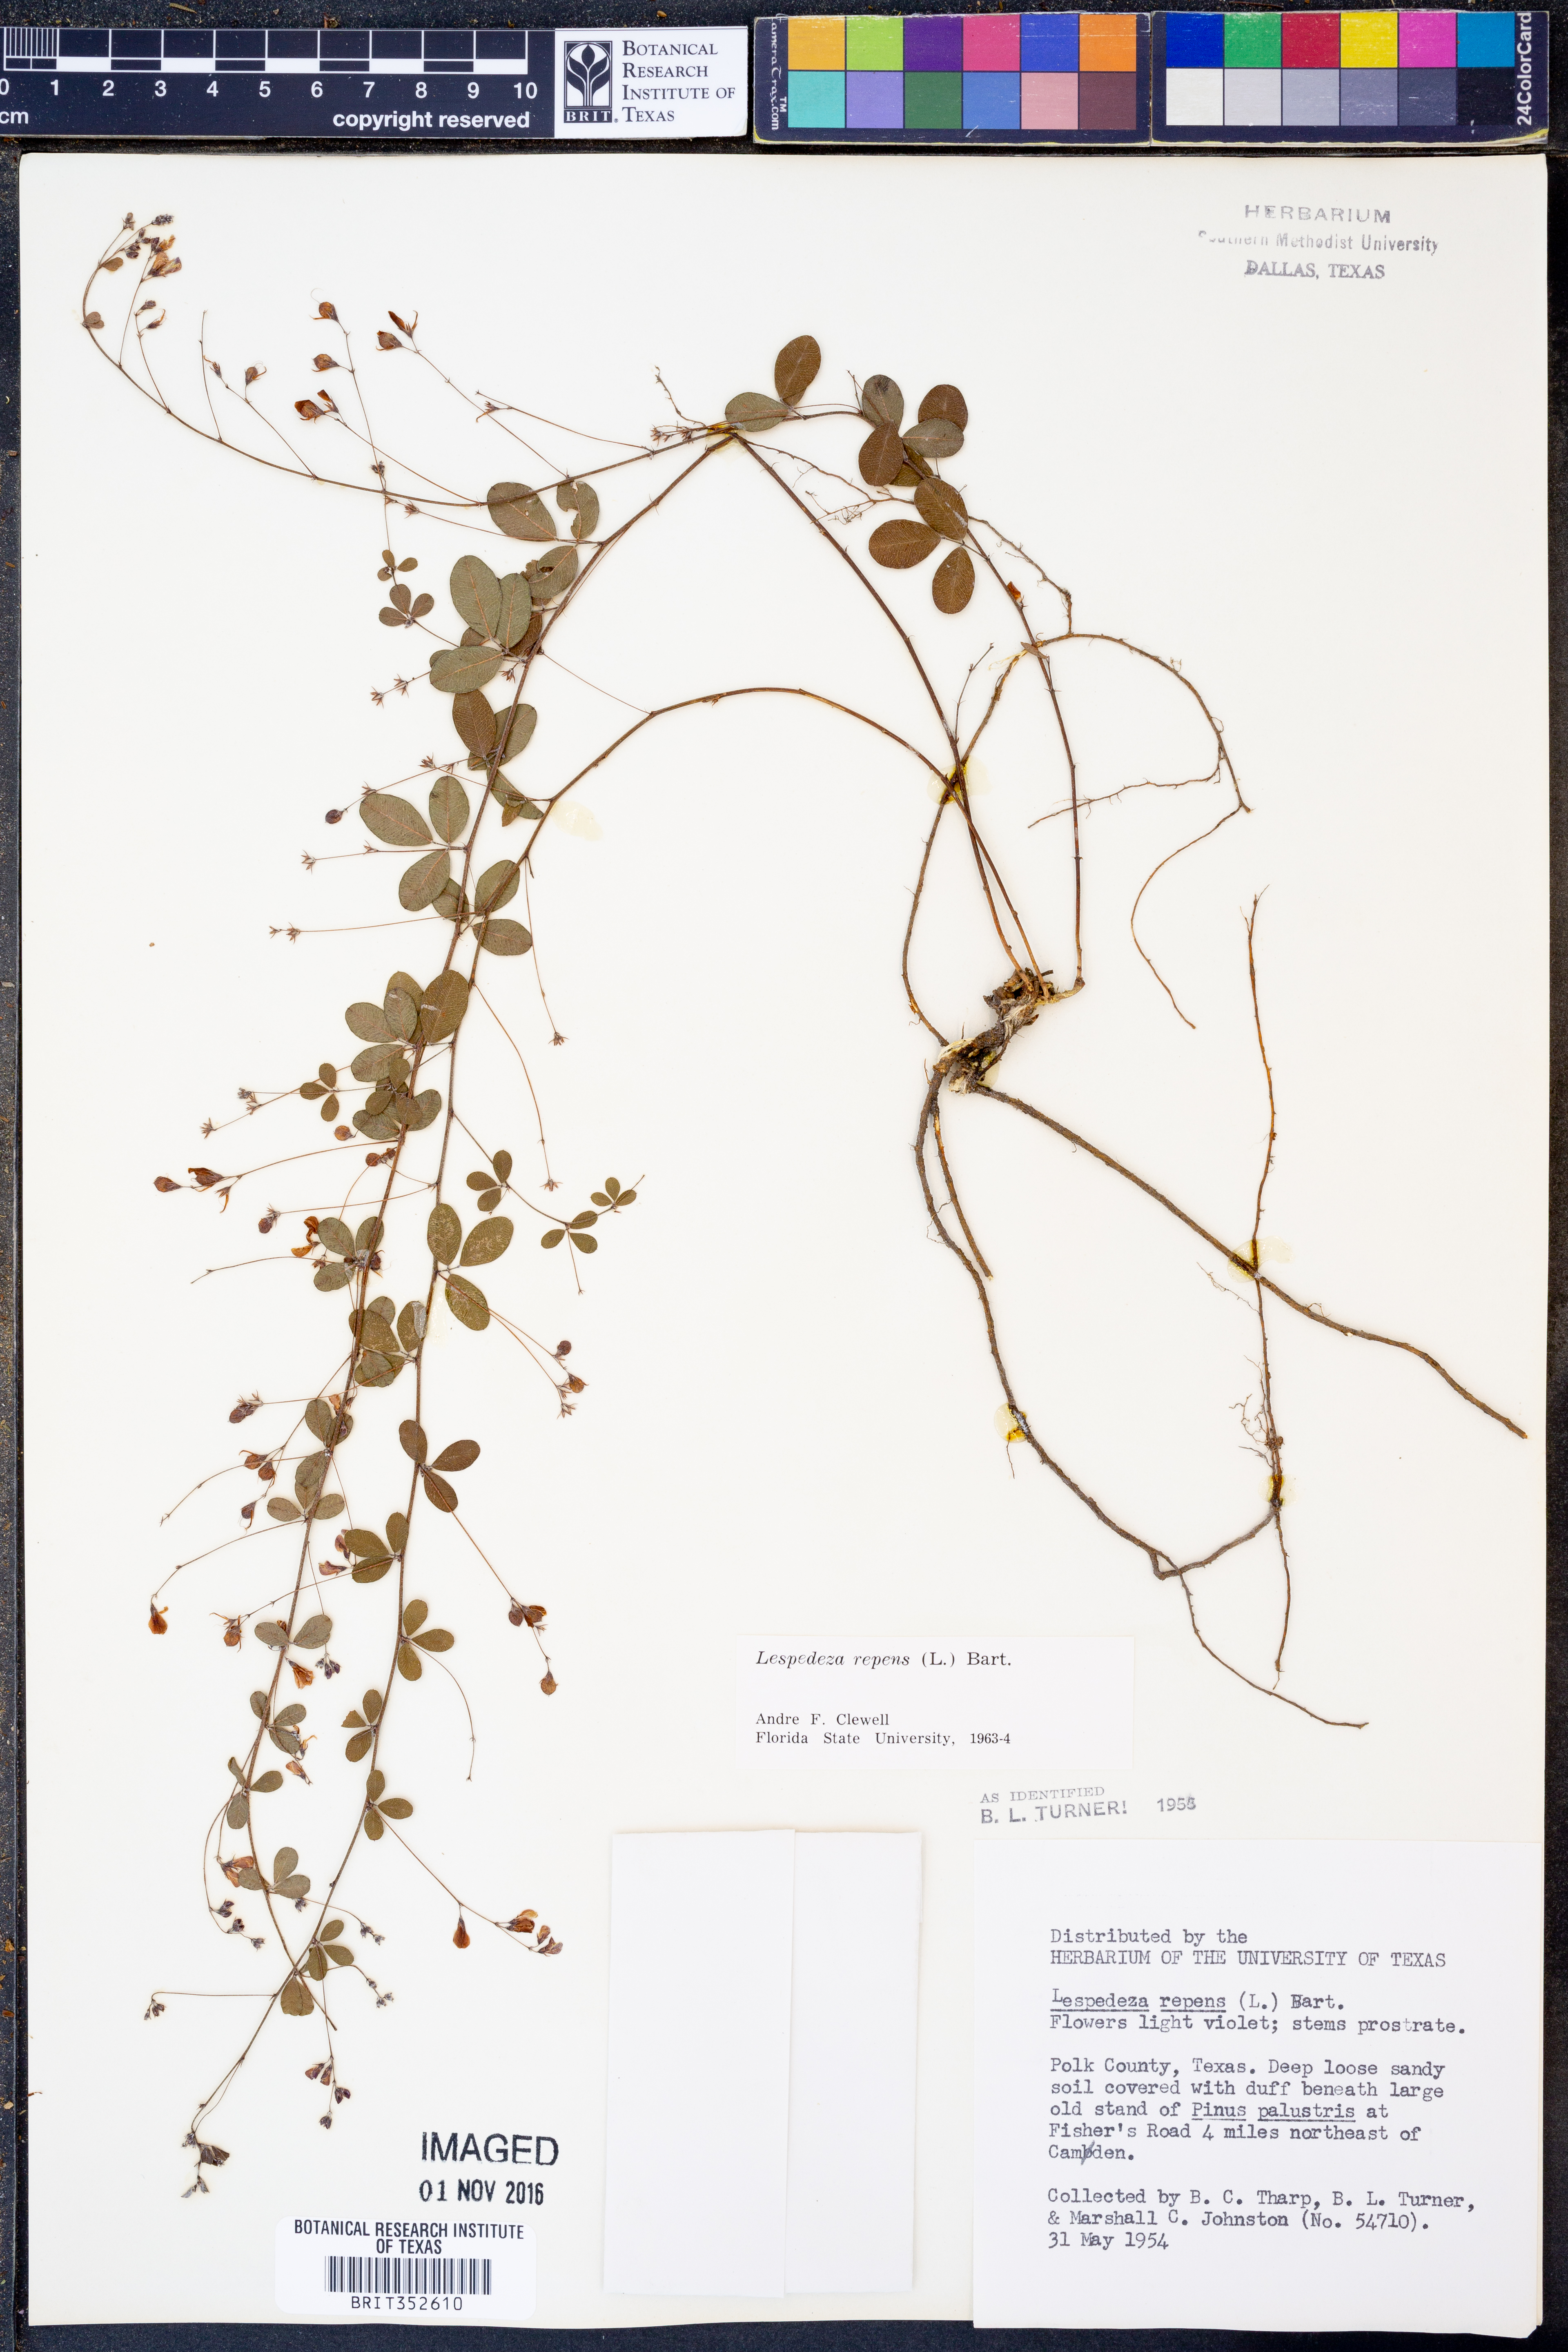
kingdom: Plantae
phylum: Tracheophyta
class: Magnoliopsida
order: Fabales
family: Fabaceae
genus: Lespedeza
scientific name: Lespedeza repens
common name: Creeping bush-clover
